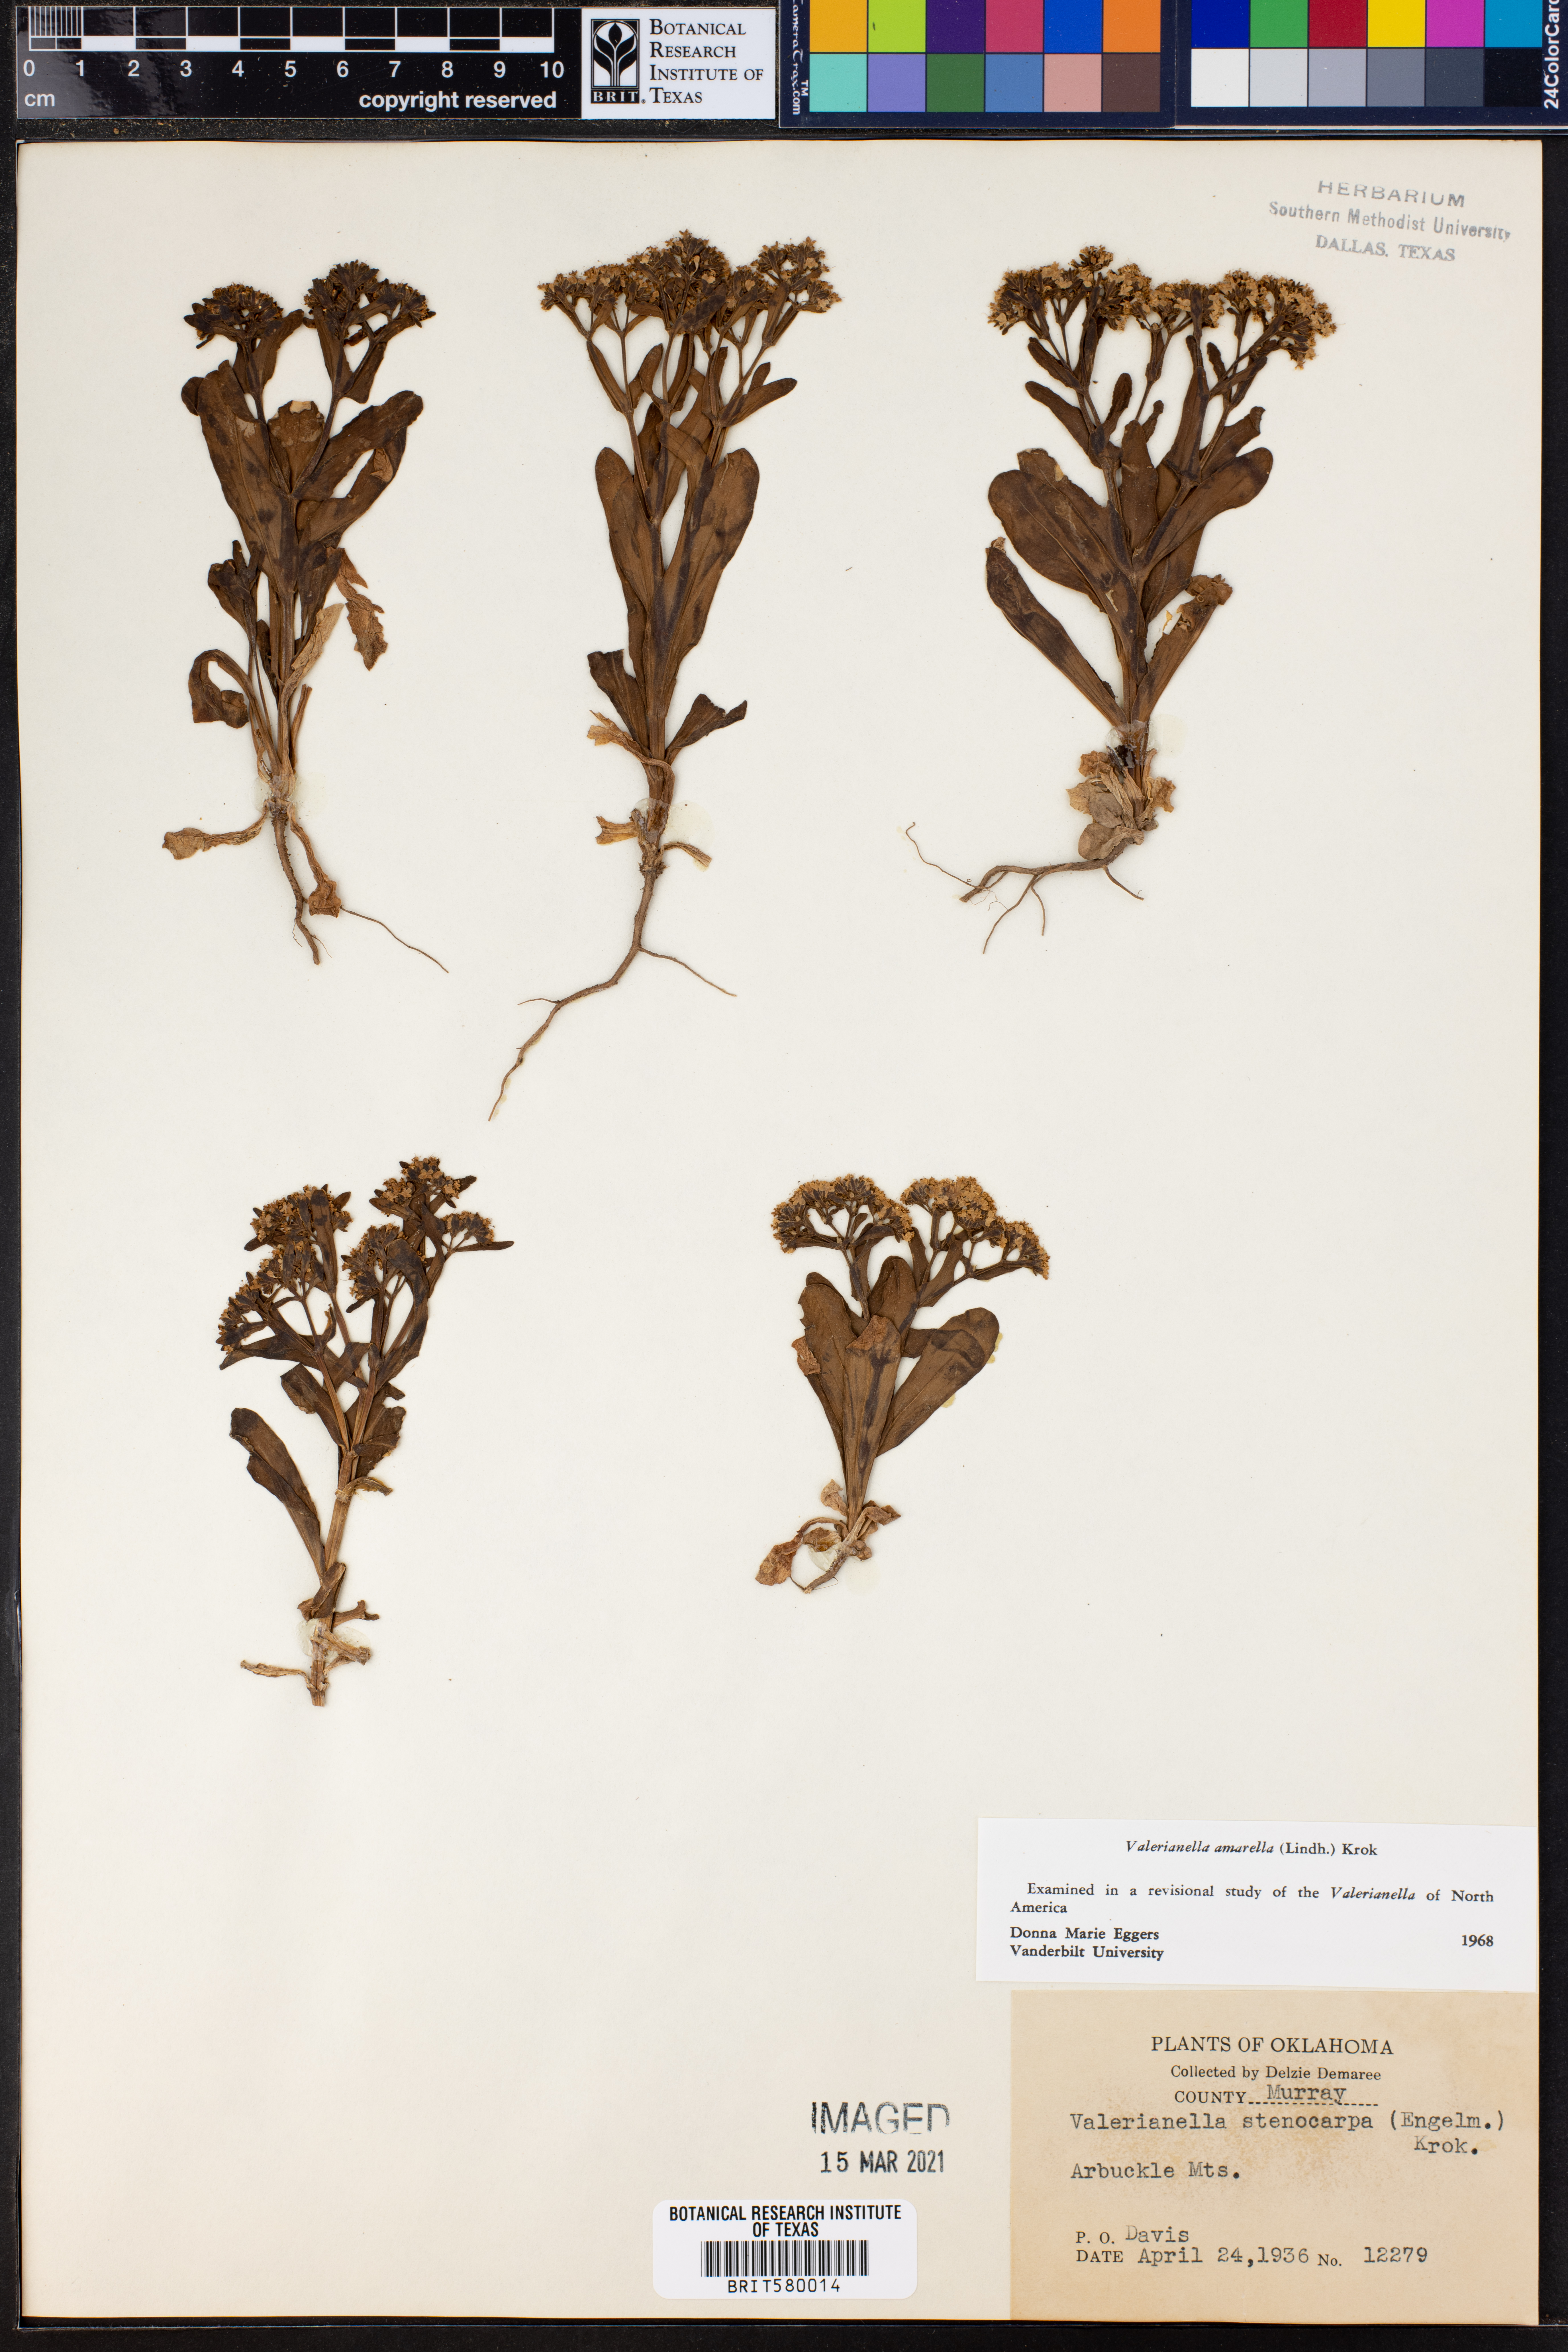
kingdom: Plantae
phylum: Tracheophyta
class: Magnoliopsida
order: Dipsacales
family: Caprifoliaceae
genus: Valerianella
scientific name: Valerianella amarella
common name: Hariy cornsalad
